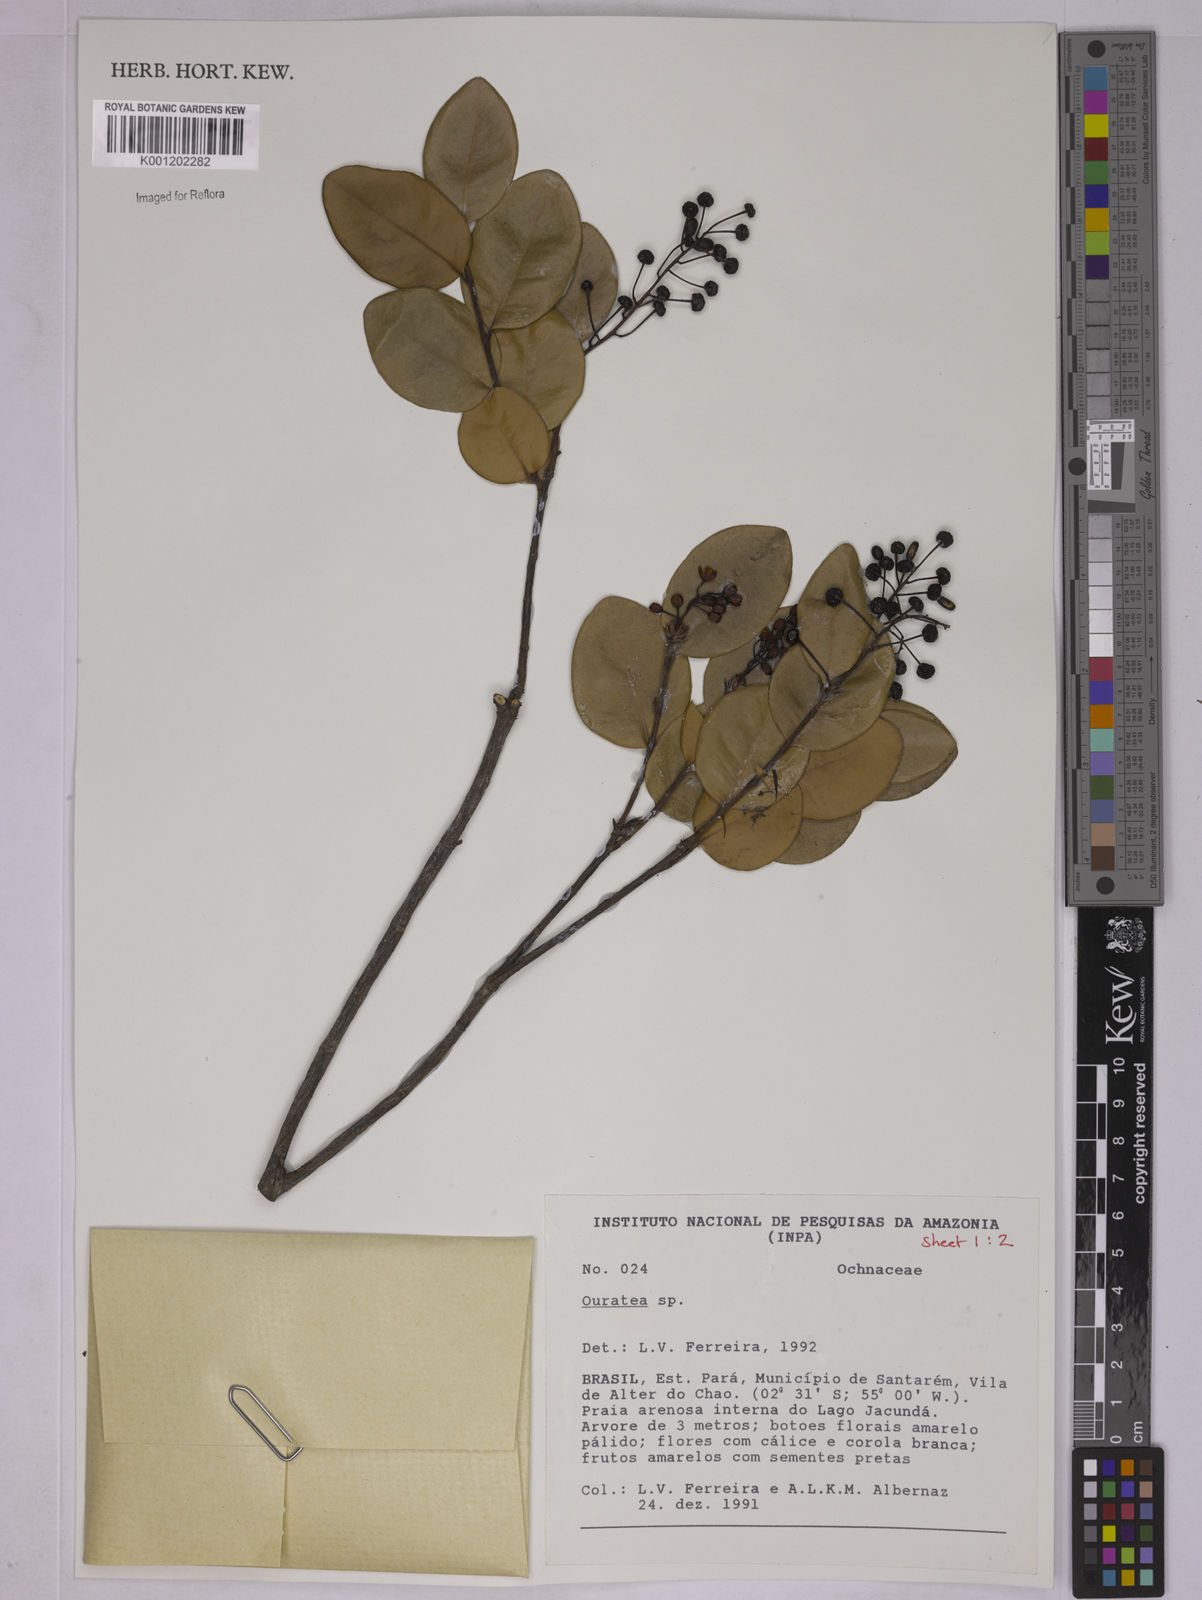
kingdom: Plantae
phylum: Tracheophyta
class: Magnoliopsida
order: Malpighiales
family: Ochnaceae
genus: Ouratea
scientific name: Ouratea
